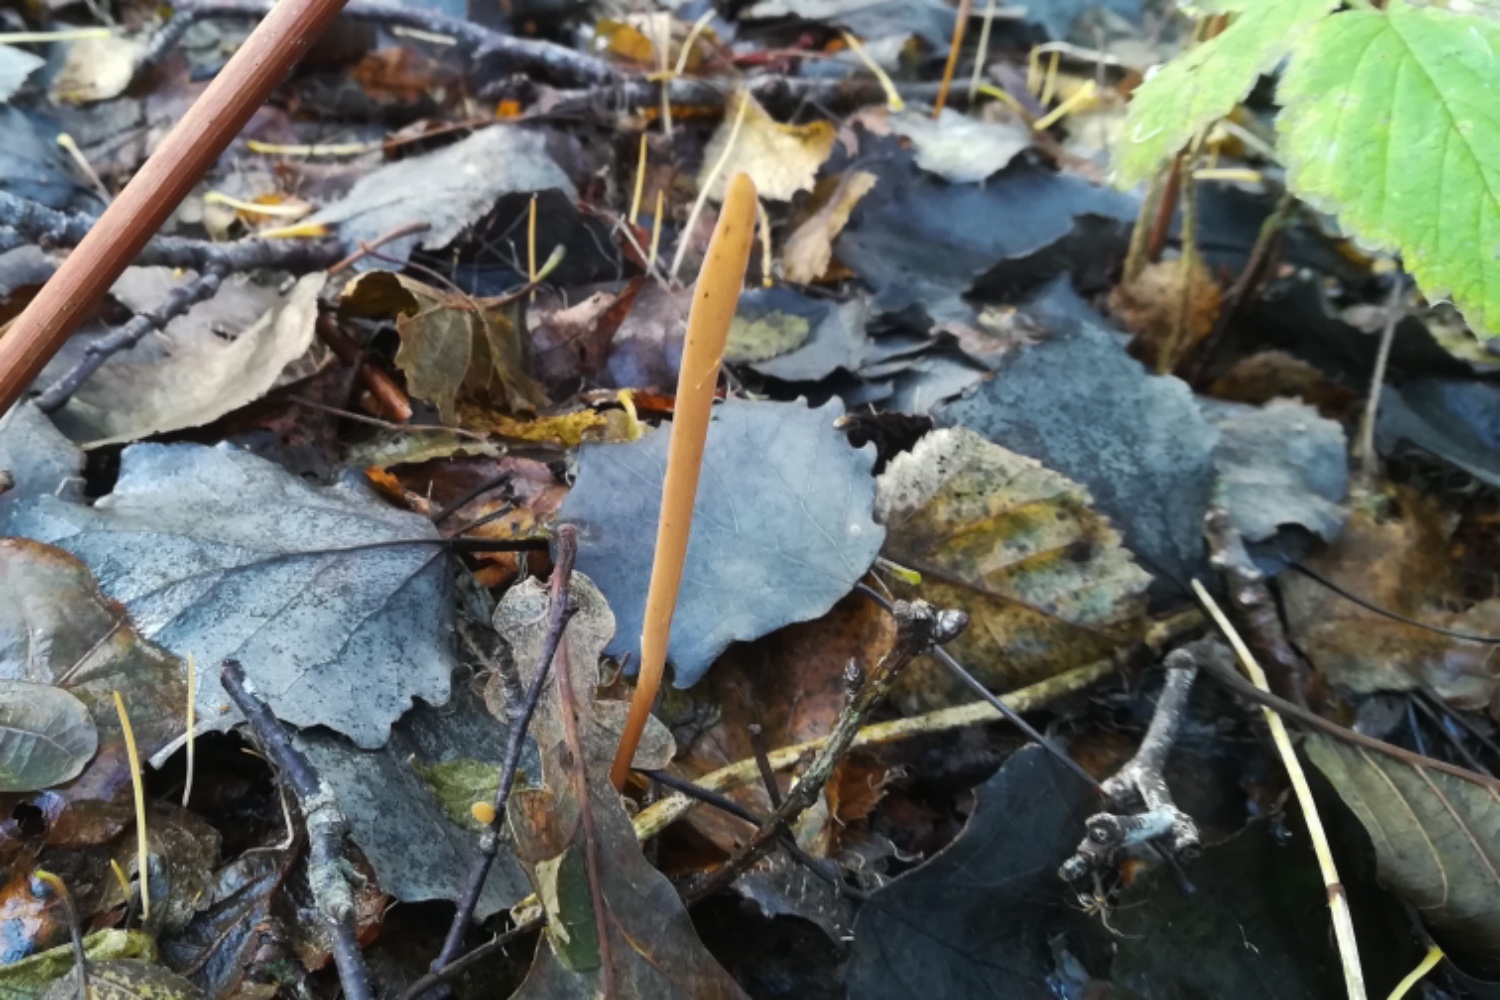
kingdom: Fungi
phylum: Basidiomycota
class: Agaricomycetes
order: Agaricales
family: Typhulaceae
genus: Typhula
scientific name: Typhula fistulosa
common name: pibet rørkølle
